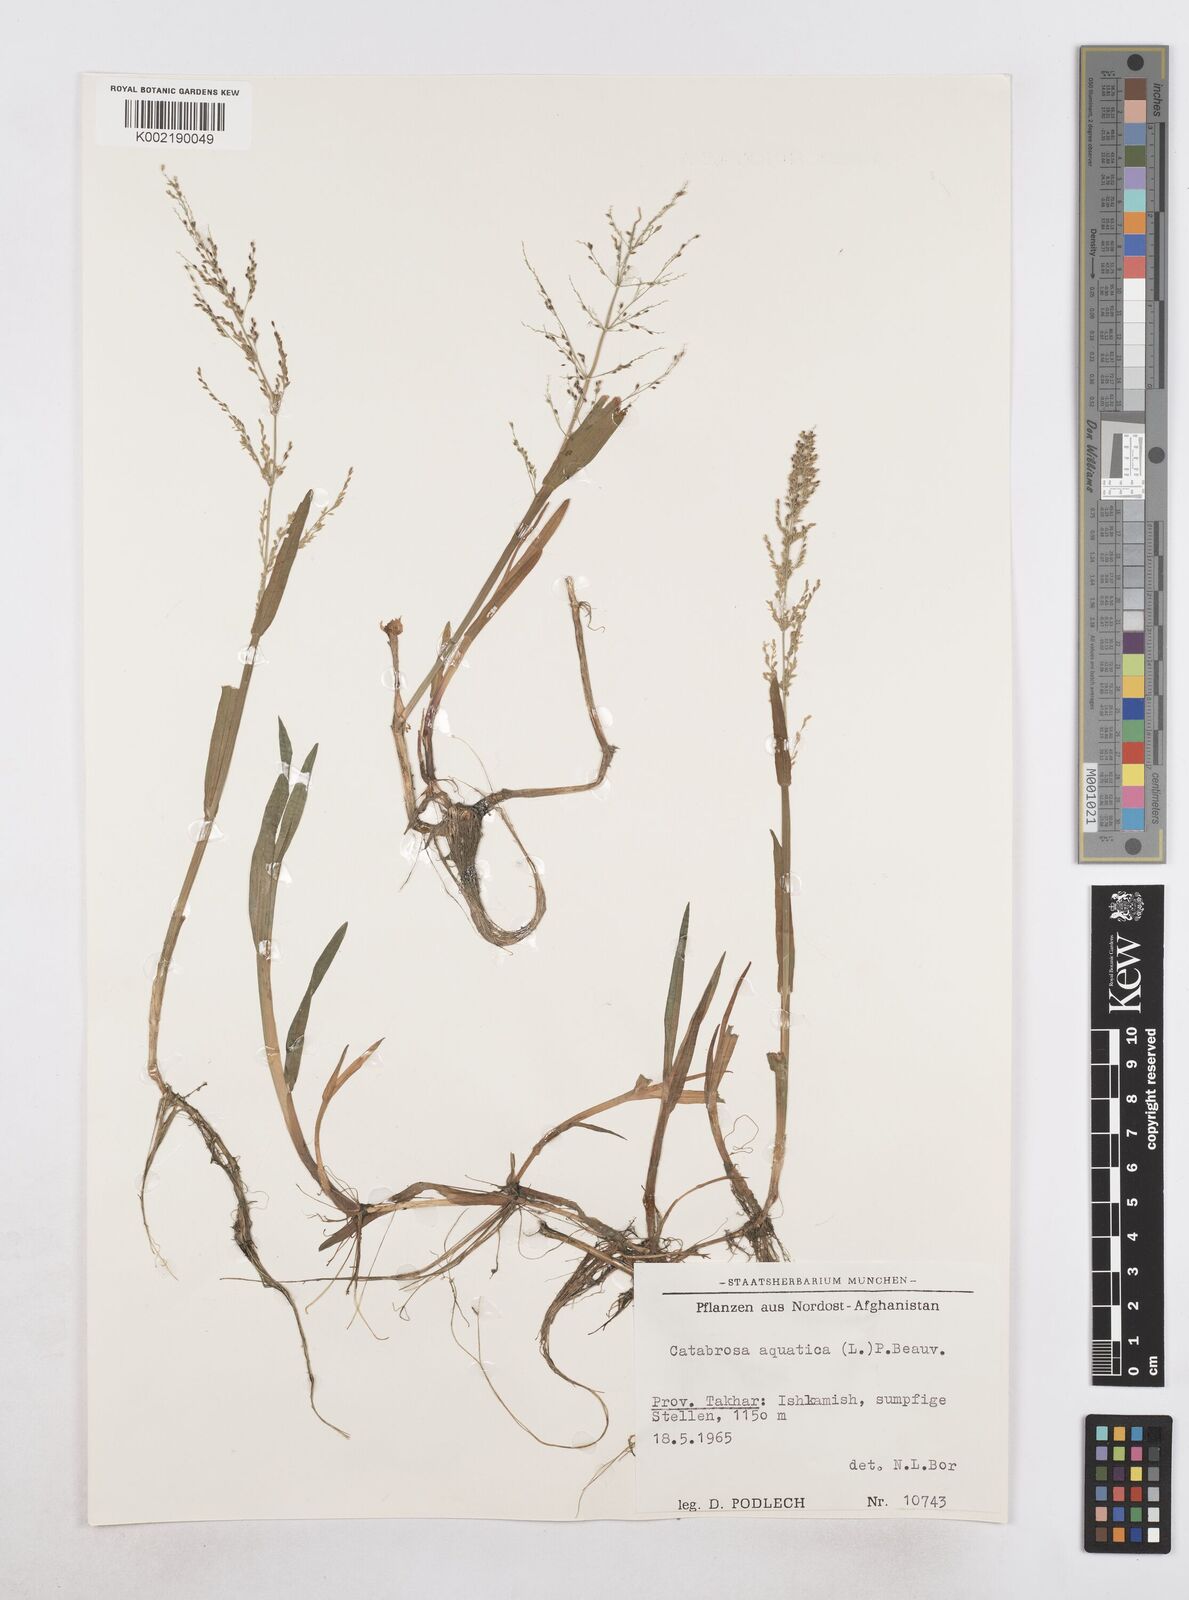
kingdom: Plantae
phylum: Tracheophyta
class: Liliopsida
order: Poales
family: Poaceae
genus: Catabrosa
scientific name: Catabrosa aquatica
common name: Whorl-grass
